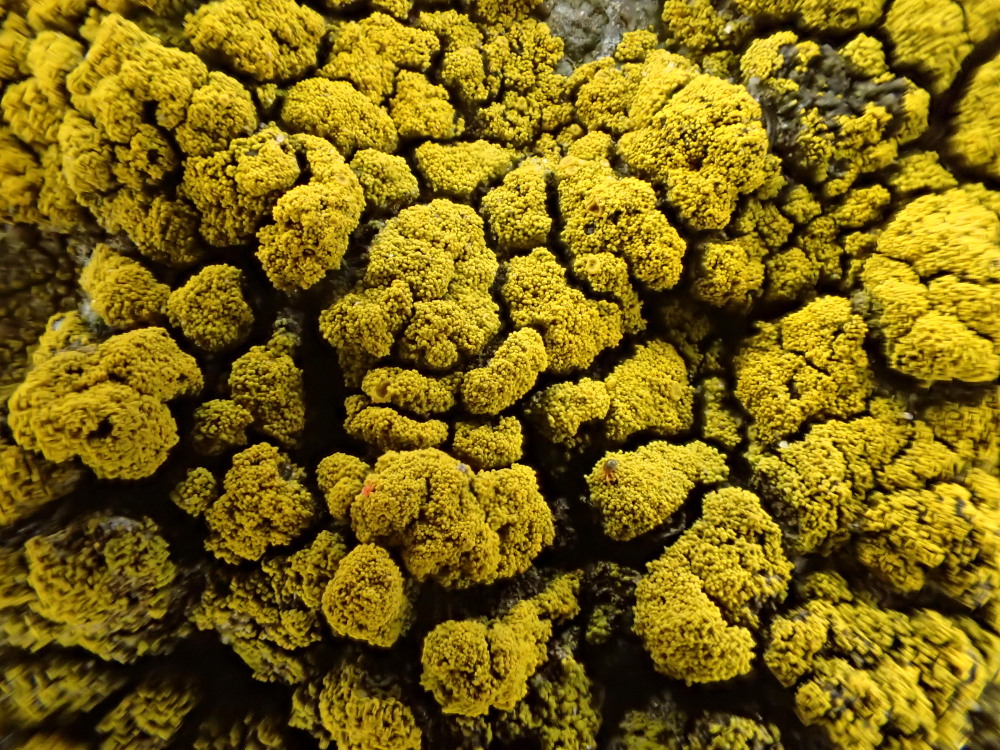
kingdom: Fungi
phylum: Ascomycota
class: Candelariomycetes
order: Candelariales
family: Candelariaceae
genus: Candelariella
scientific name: Candelariella coralliza
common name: pude-æggeblommelav
